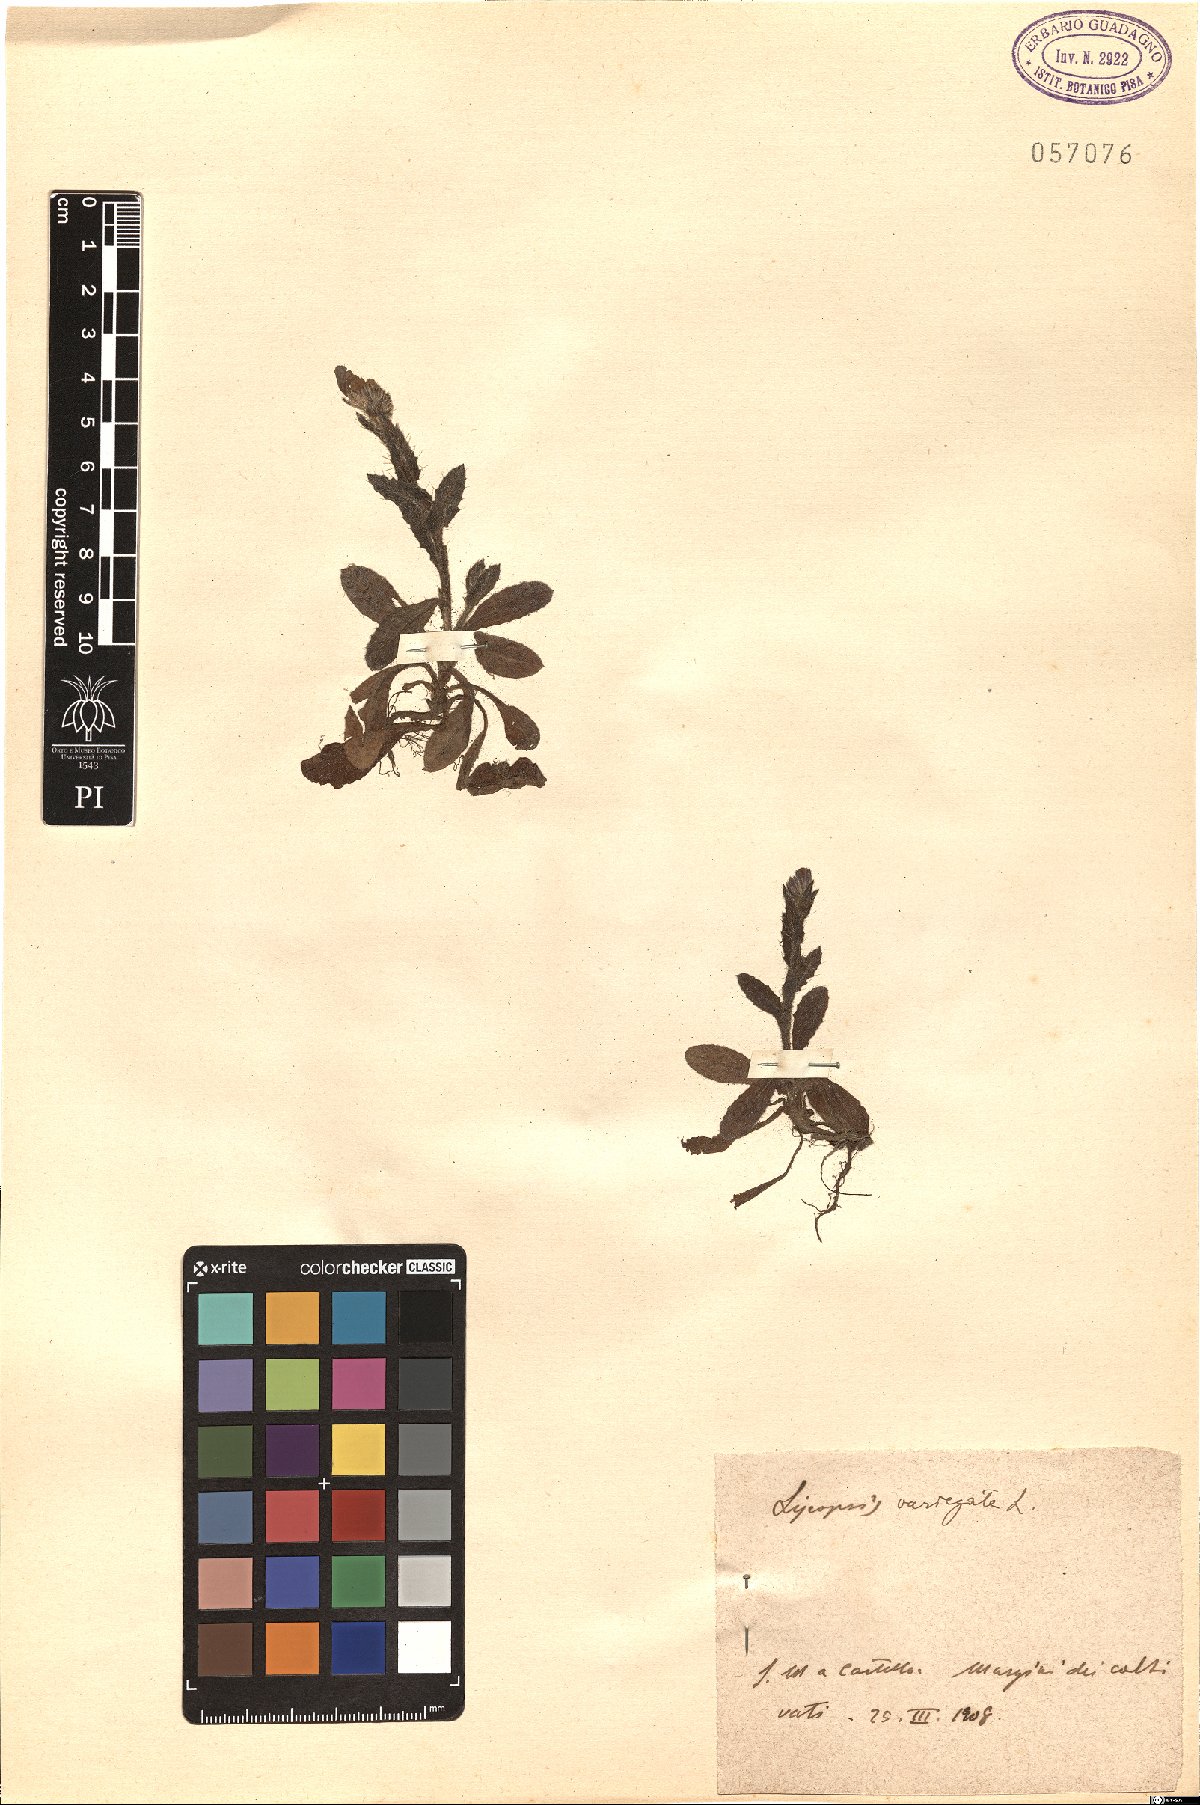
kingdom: Plantae
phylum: Tracheophyta
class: Magnoliopsida
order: Boraginales
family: Boraginaceae
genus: Anchusella
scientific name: Anchusella variegata
